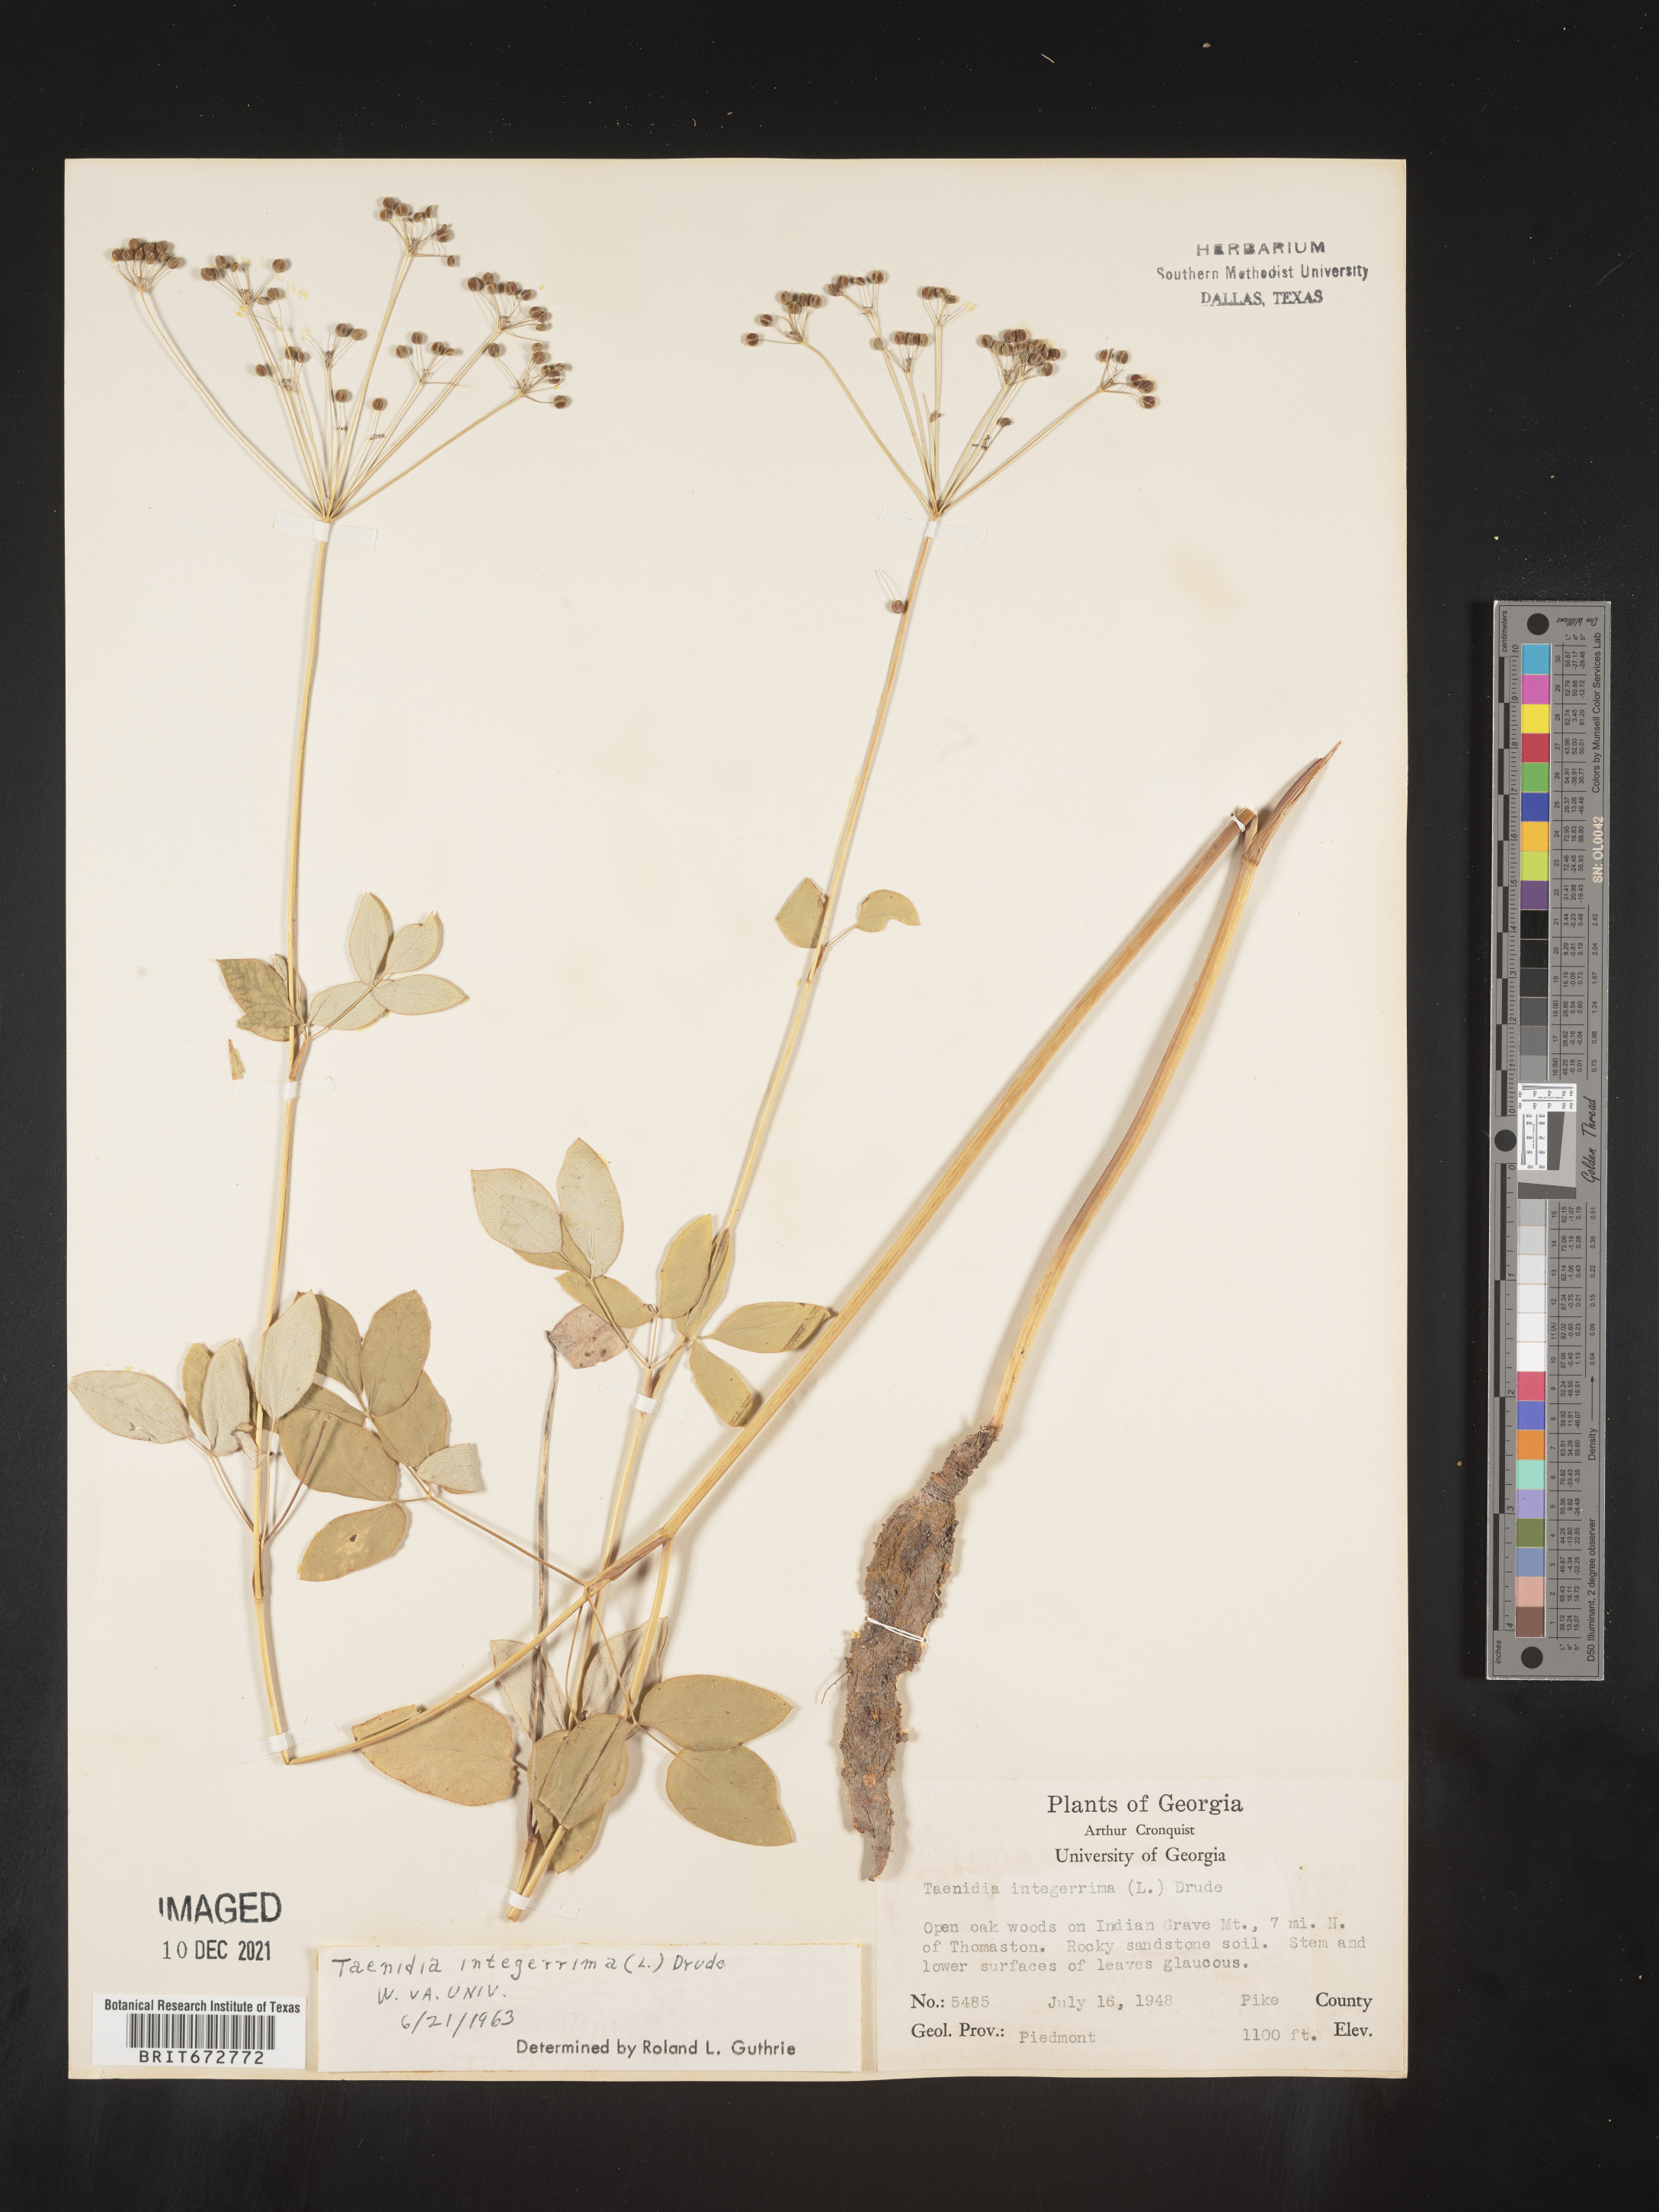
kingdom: Plantae
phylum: Tracheophyta
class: Magnoliopsida
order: Apiales
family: Apiaceae
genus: Taenidia
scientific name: Taenidia integerrima
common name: Golden alexander
